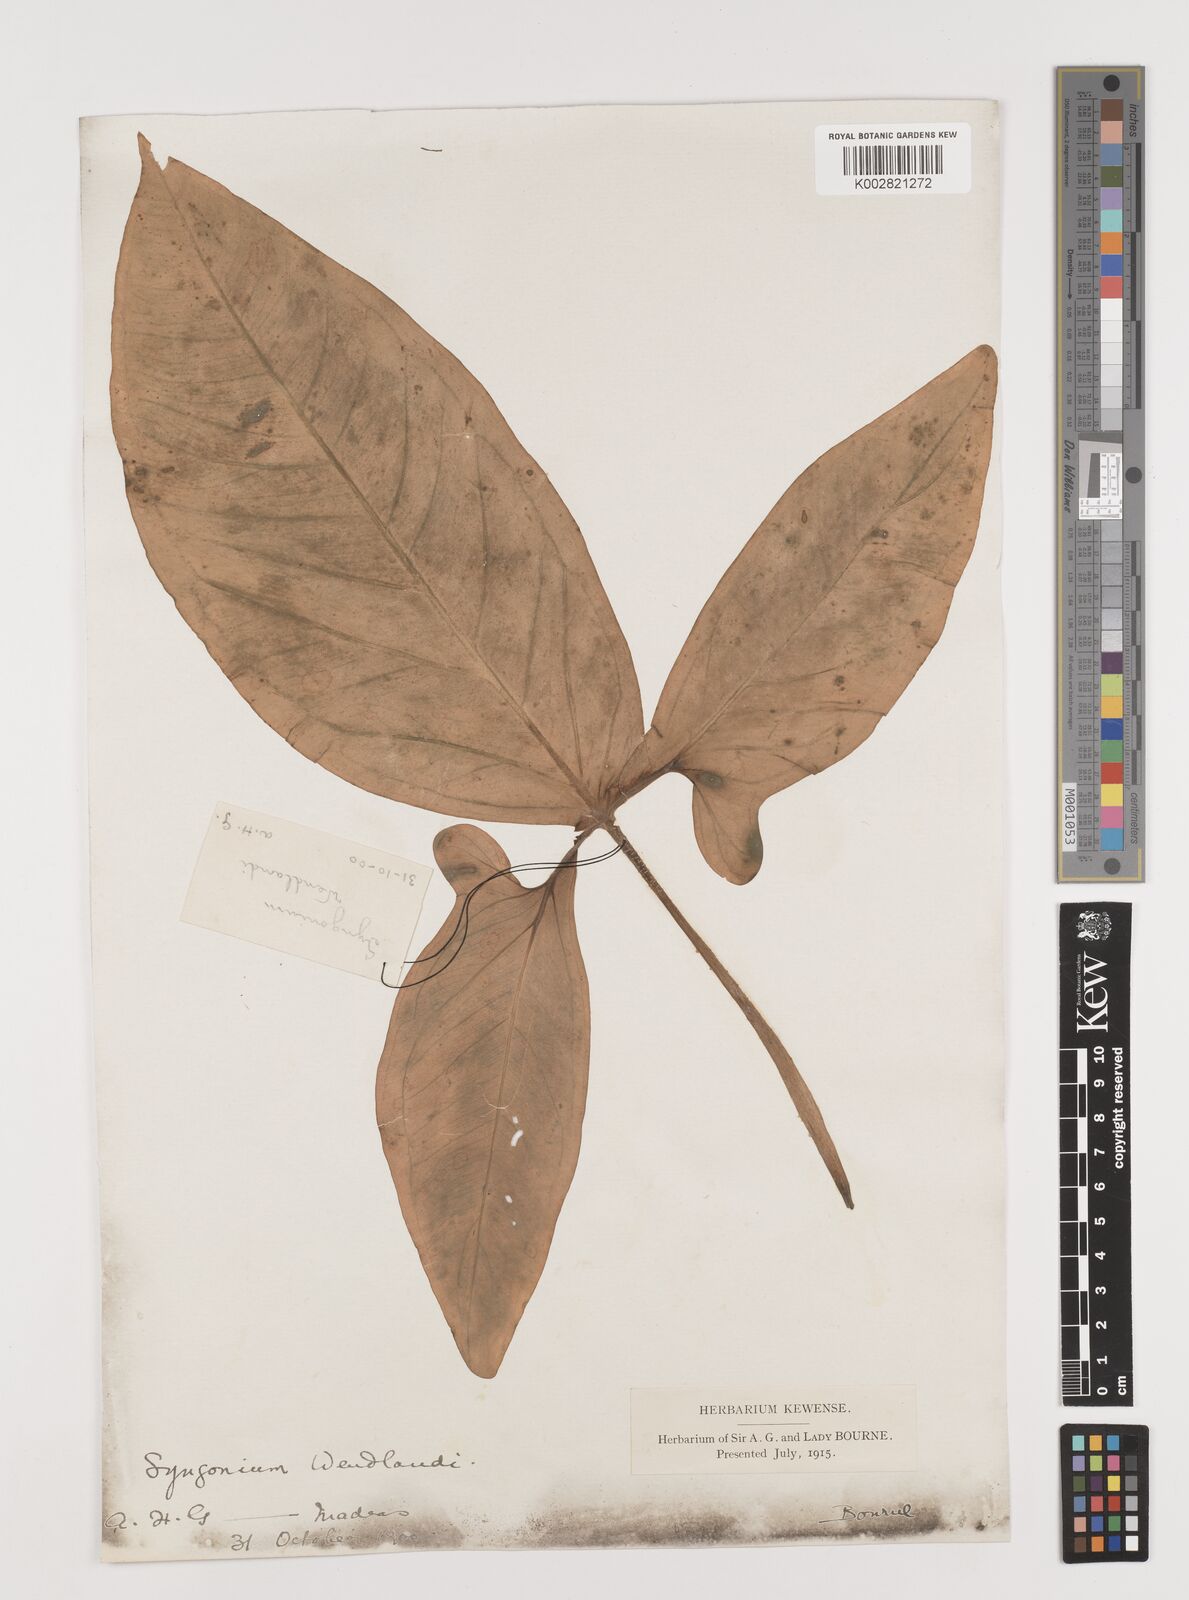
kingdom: Plantae
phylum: Tracheophyta
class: Liliopsida
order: Alismatales
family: Araceae
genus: Syngonium
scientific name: Syngonium wendlandii
